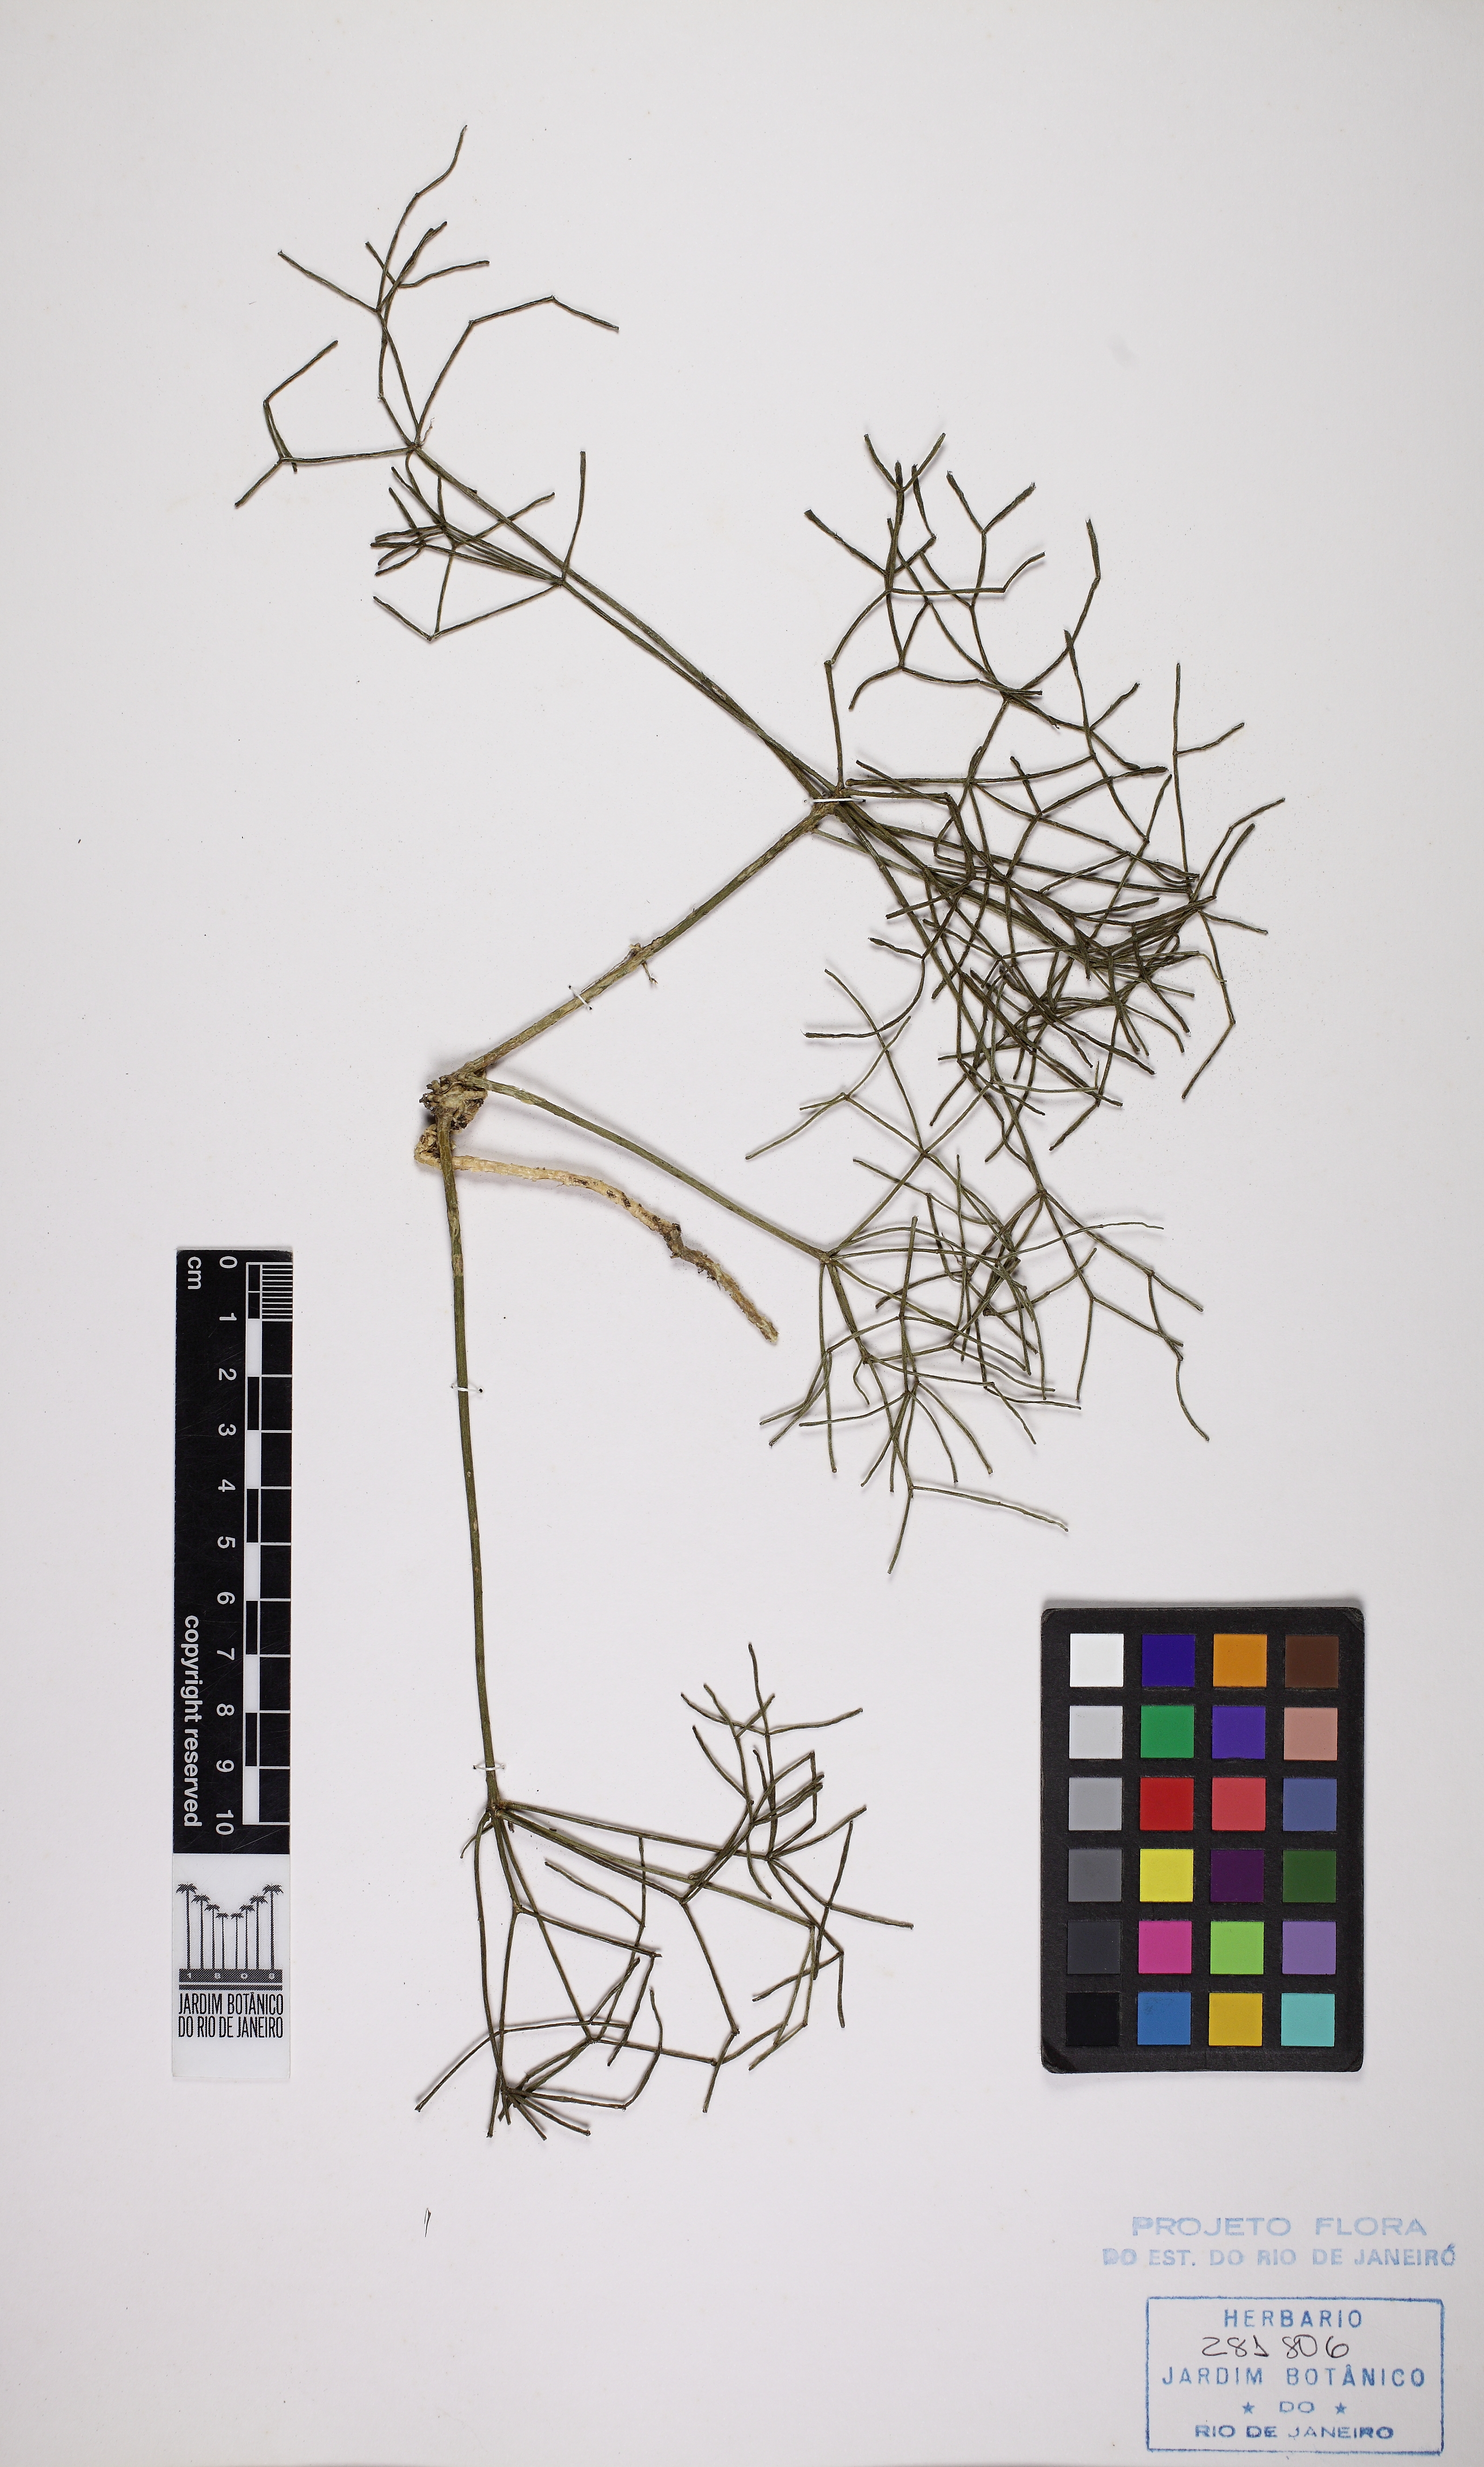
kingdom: Plantae
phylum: Tracheophyta
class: Magnoliopsida
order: Caryophyllales
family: Cactaceae
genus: Rhipsalis
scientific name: Rhipsalis teres
